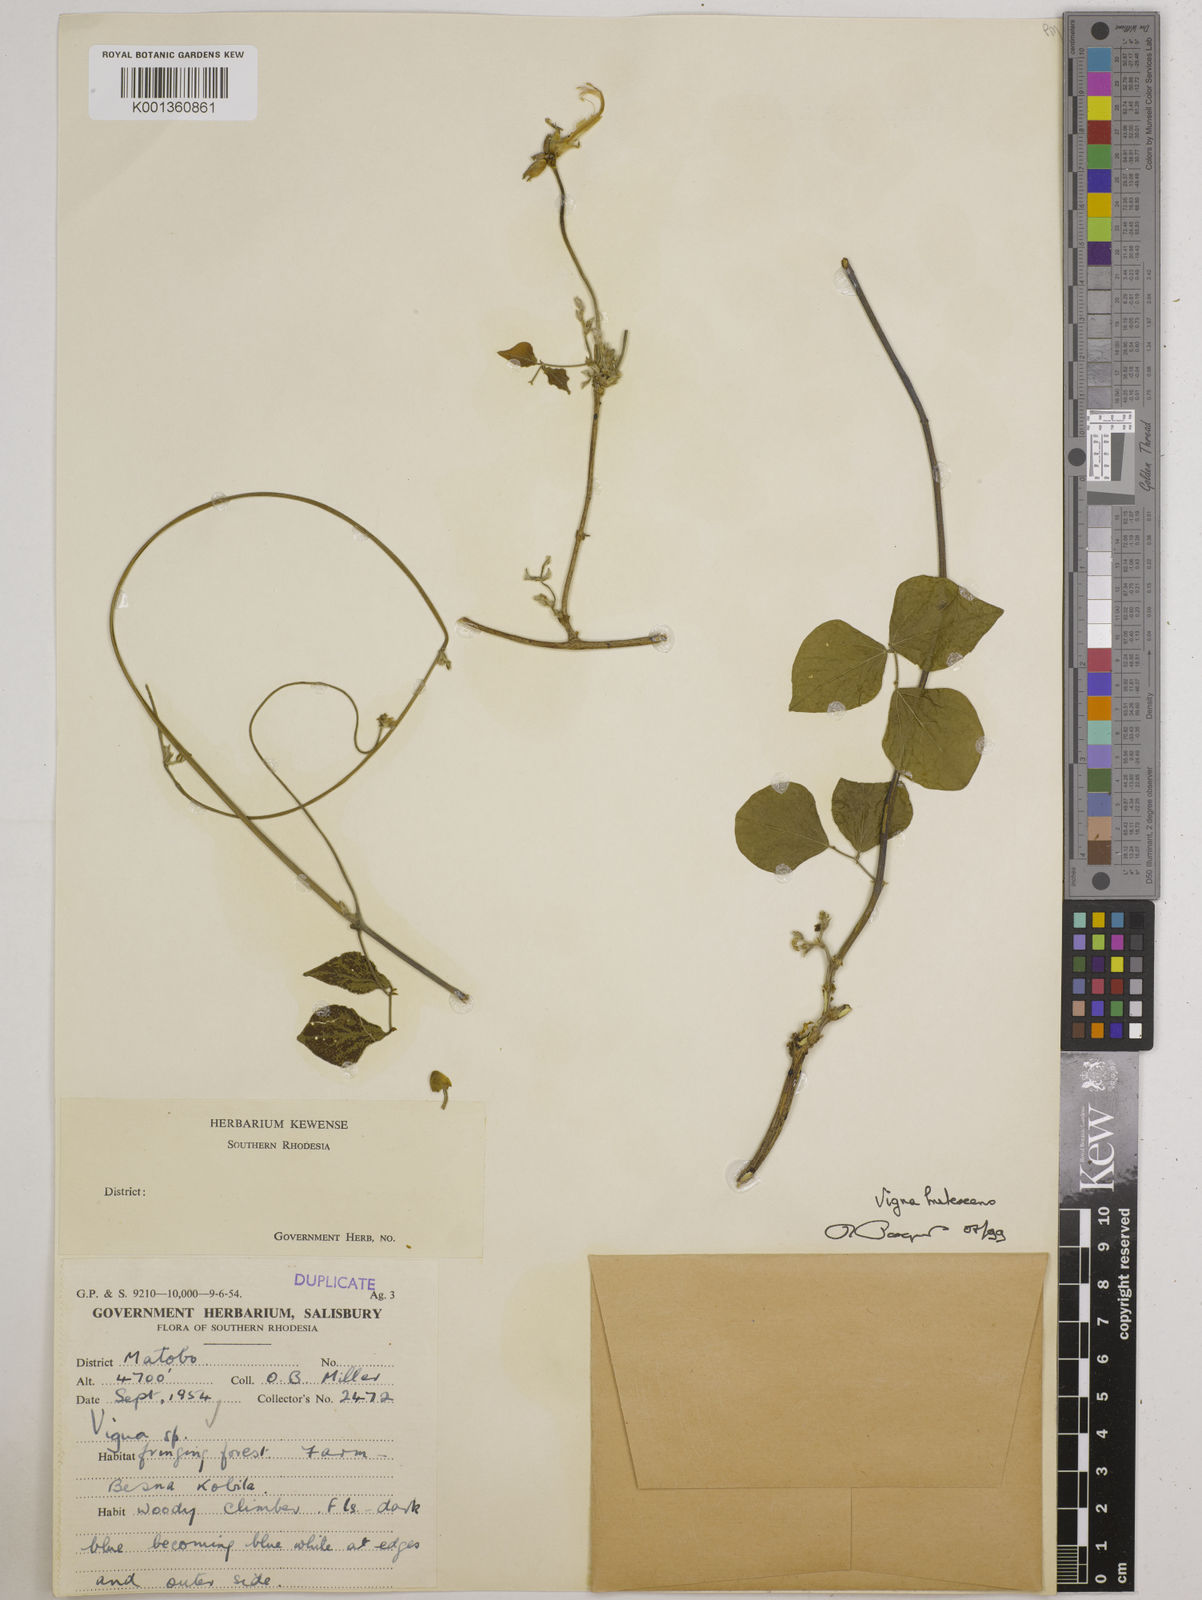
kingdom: Plantae
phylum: Tracheophyta
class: Magnoliopsida
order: Fabales
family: Fabaceae
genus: Vigna
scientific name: Vigna
